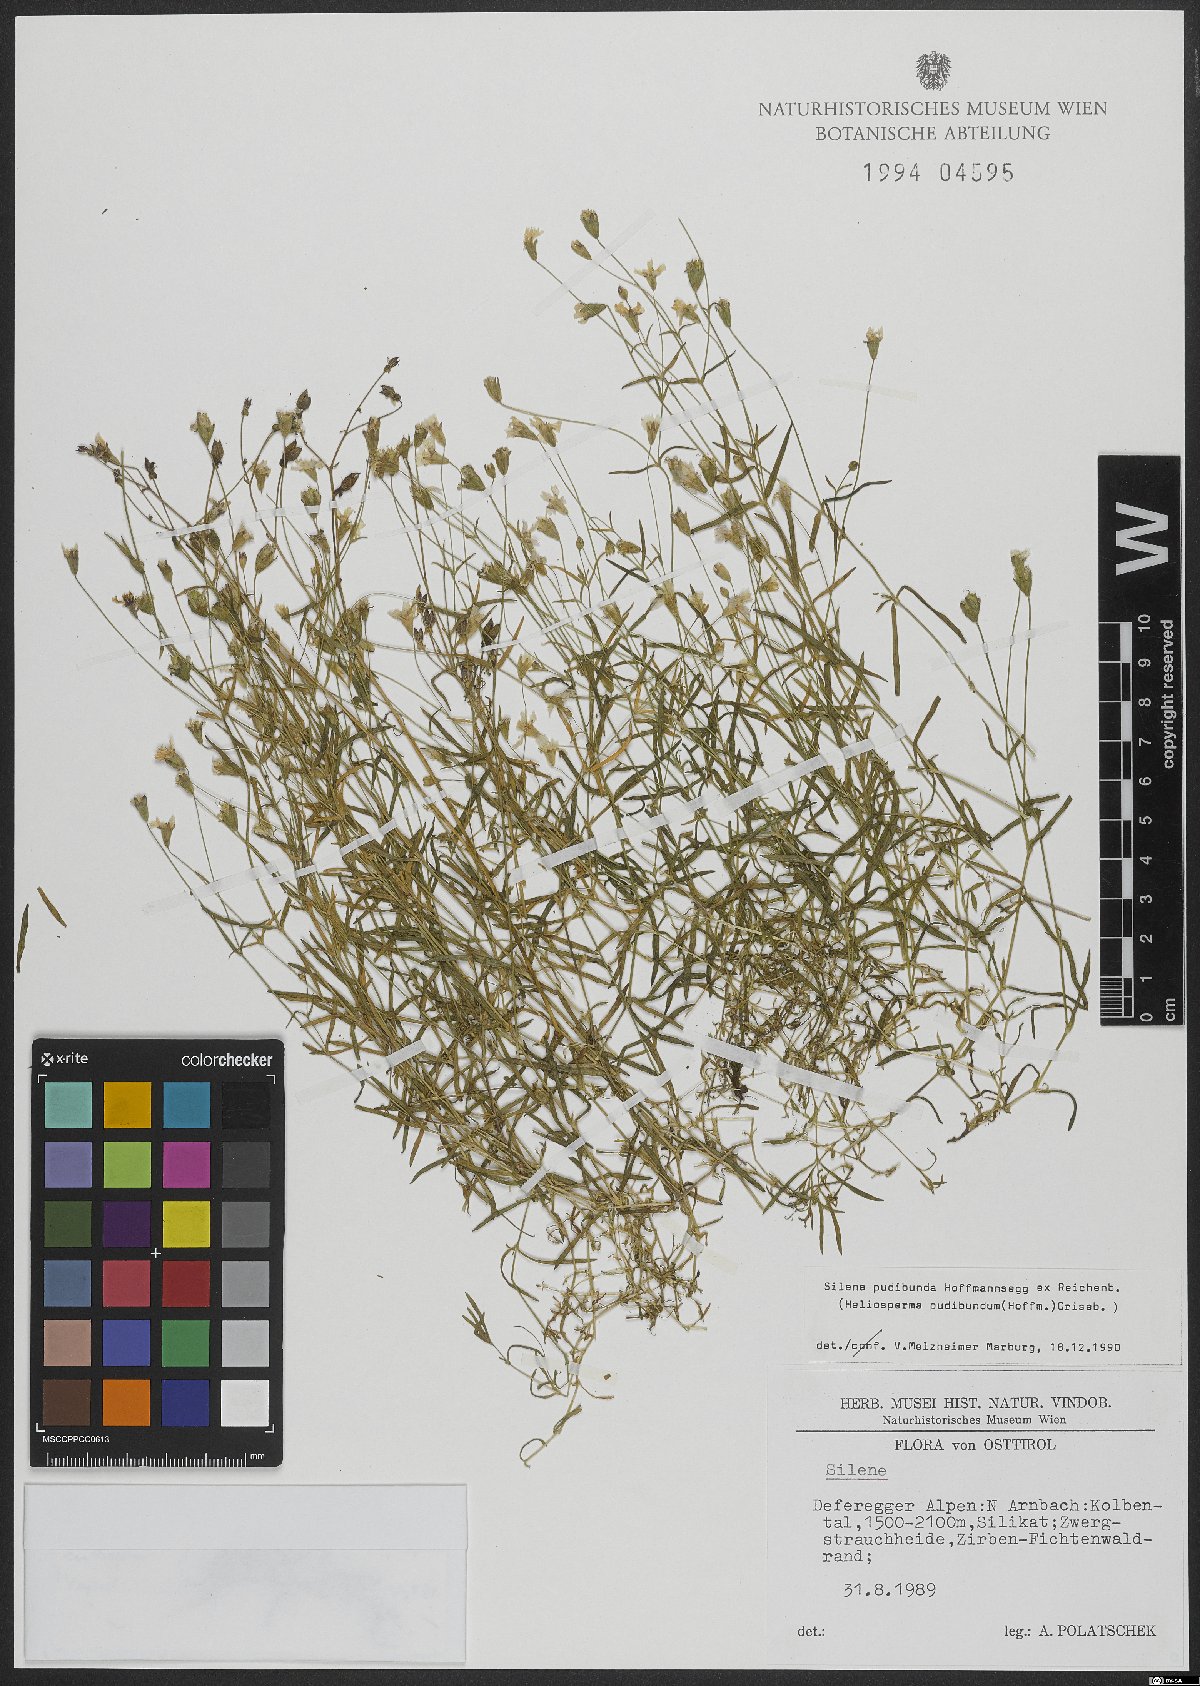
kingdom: Plantae
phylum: Tracheophyta
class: Magnoliopsida
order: Caryophyllales
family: Caryophyllaceae
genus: Heliosperma
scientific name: Heliosperma pudibundum
